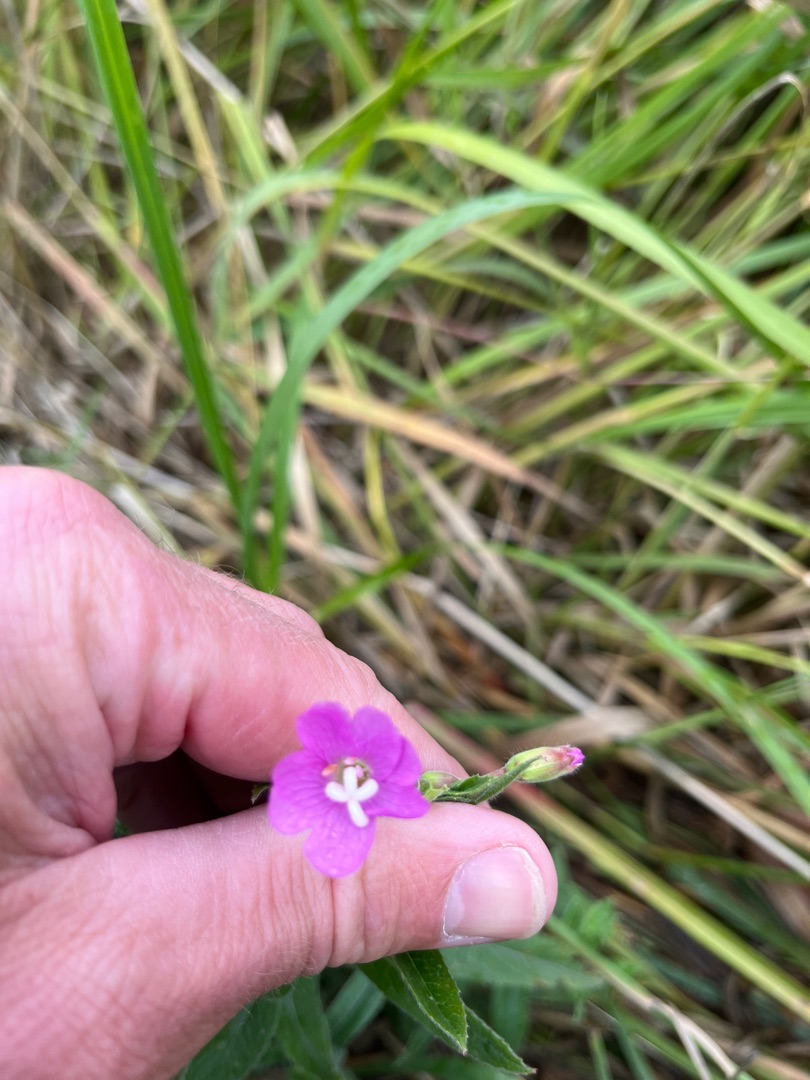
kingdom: Plantae
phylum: Tracheophyta
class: Magnoliopsida
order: Myrtales
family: Onagraceae
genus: Epilobium
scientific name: Epilobium hirsutum
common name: Lådden dueurt
